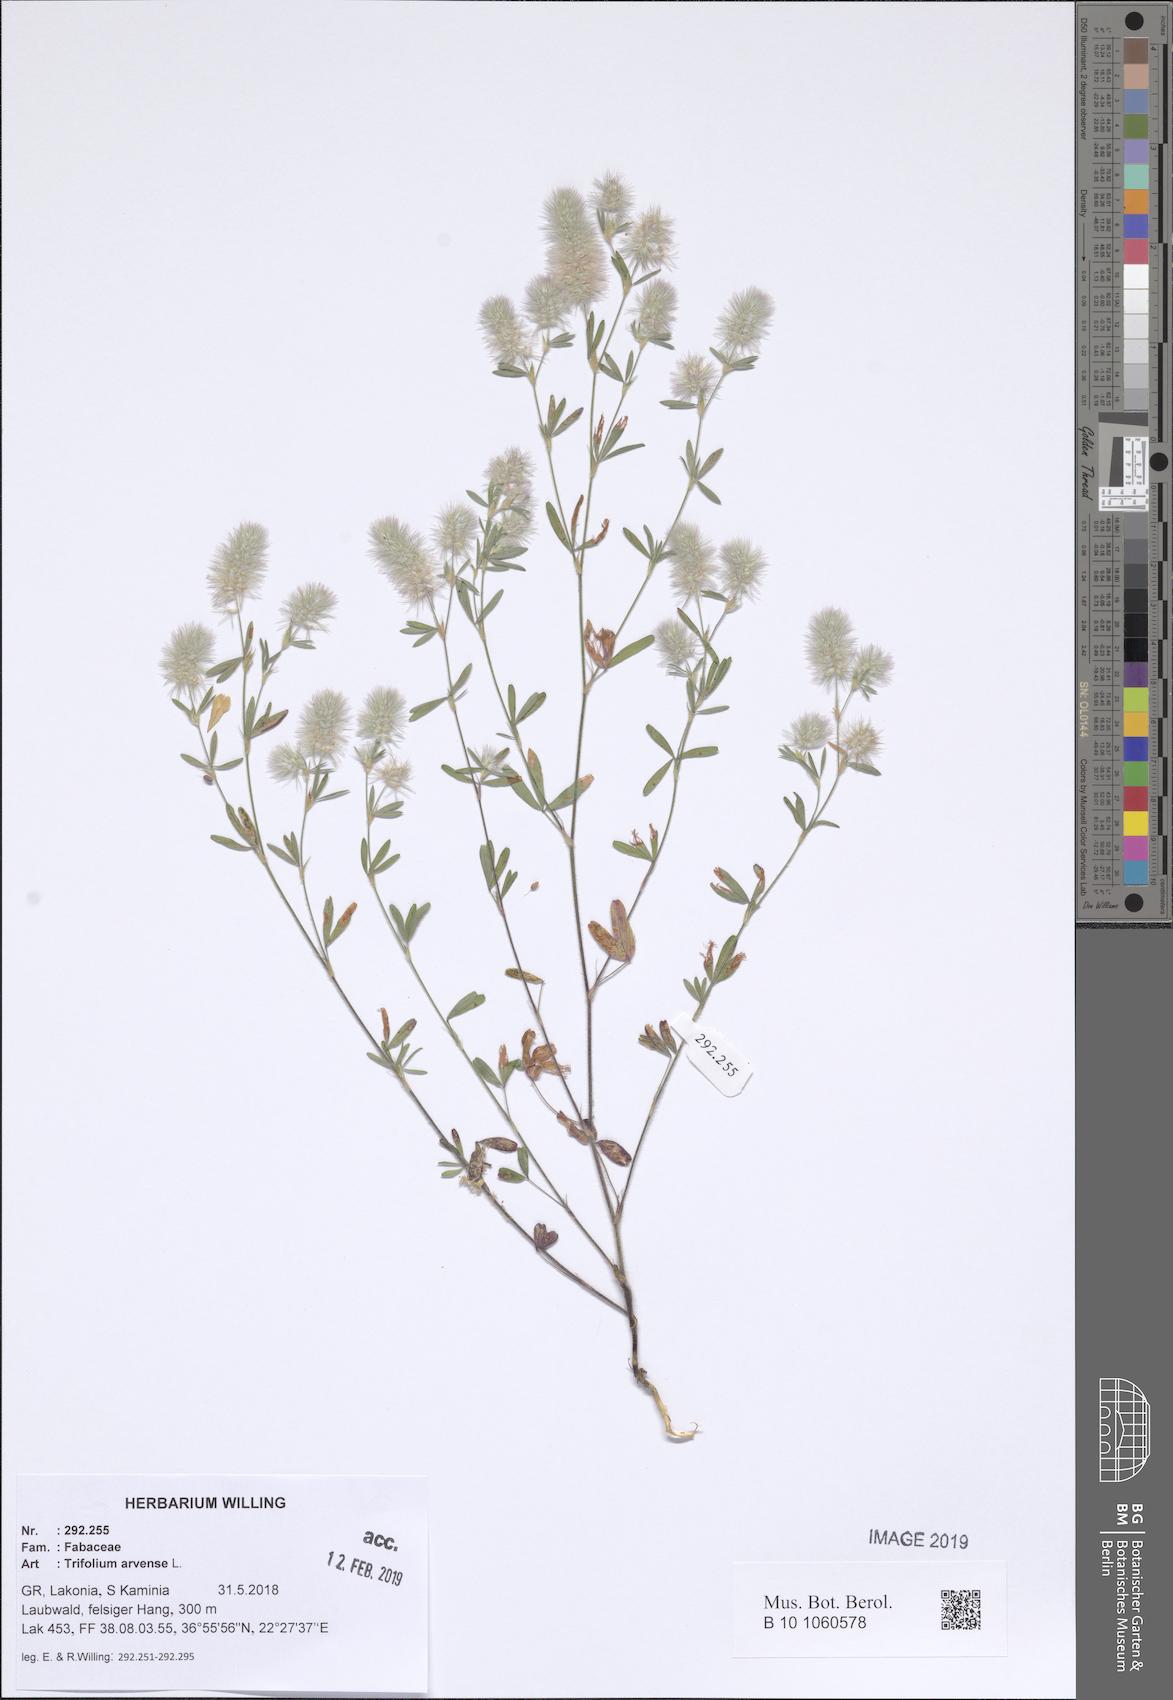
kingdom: Plantae
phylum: Tracheophyta
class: Magnoliopsida
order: Fabales
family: Fabaceae
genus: Trifolium
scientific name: Trifolium arvense
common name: Hare's-foot clover
